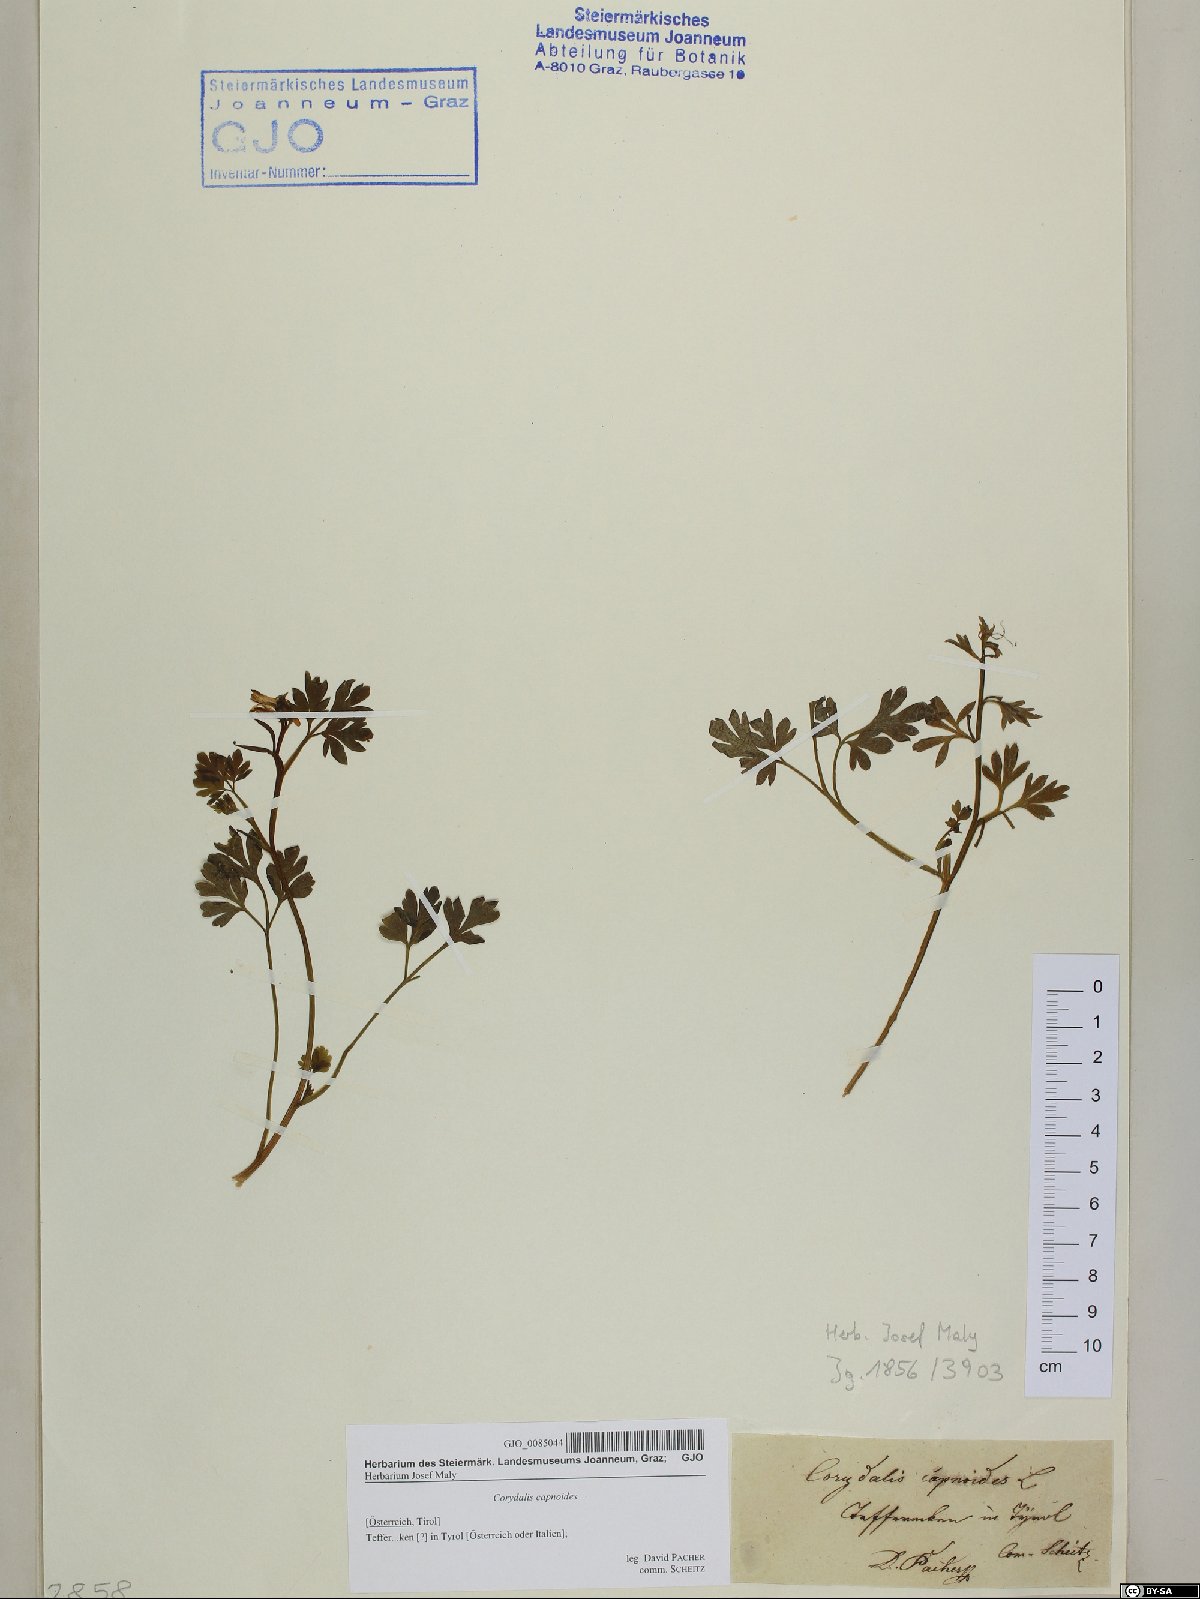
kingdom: Plantae
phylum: Tracheophyta
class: Magnoliopsida
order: Ranunculales
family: Papaveraceae
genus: Corydalis
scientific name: Corydalis capnoides
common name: Beaked corydalis
